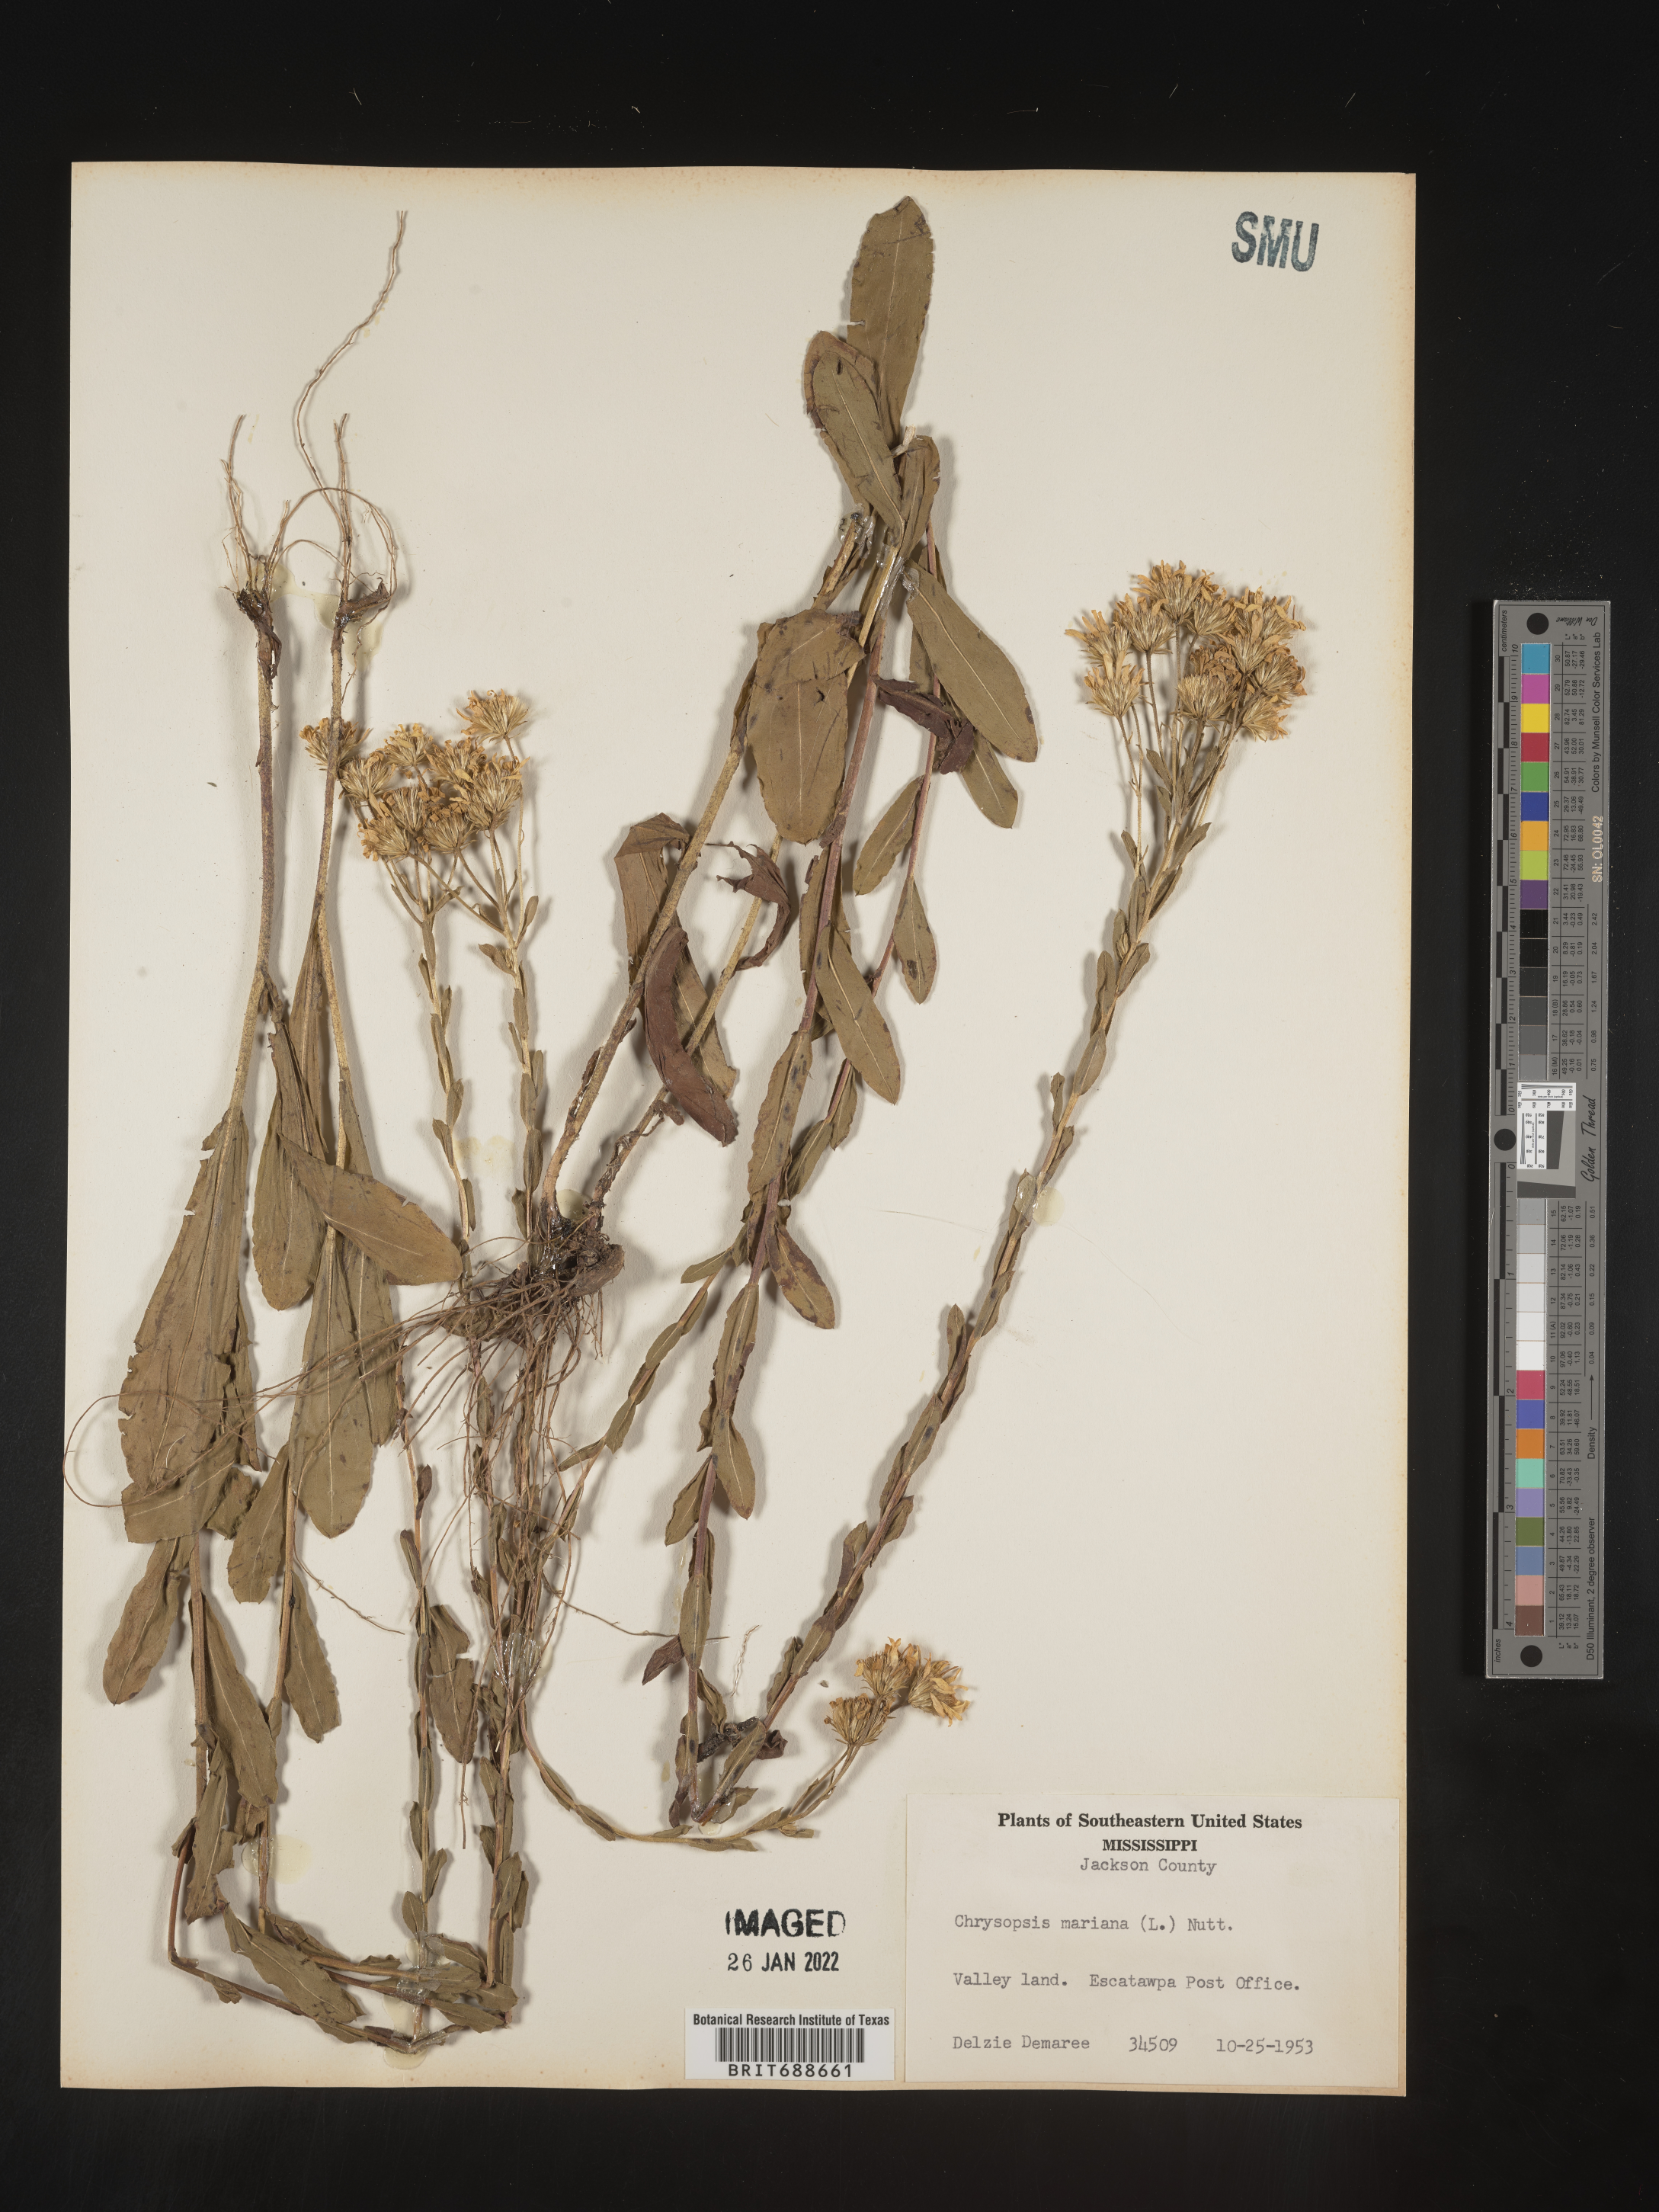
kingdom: Plantae
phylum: Tracheophyta
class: Magnoliopsida
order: Asterales
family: Asteraceae
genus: Chrysopsis
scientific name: Chrysopsis mariana
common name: Maryland golden-aster
